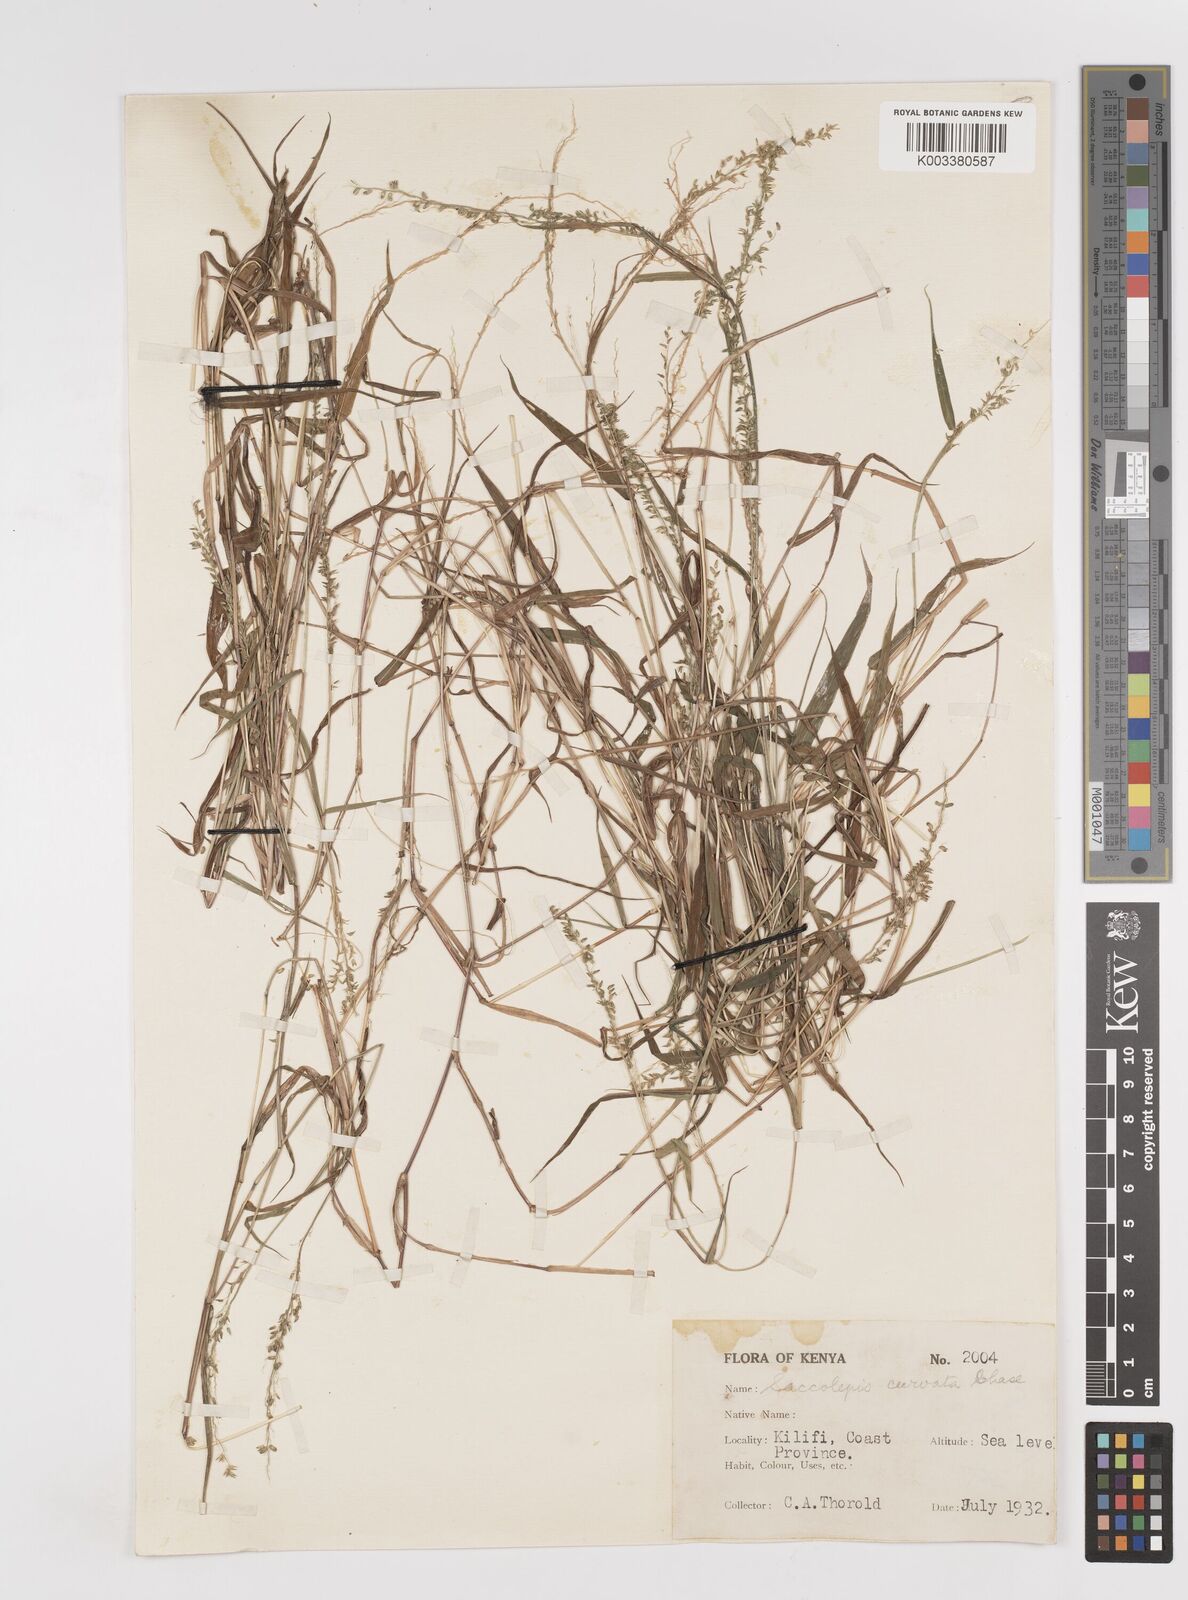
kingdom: Plantae
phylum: Tracheophyta
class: Liliopsida
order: Poales
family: Poaceae
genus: Sacciolepis
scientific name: Sacciolepis curvata
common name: Forest hood grass
